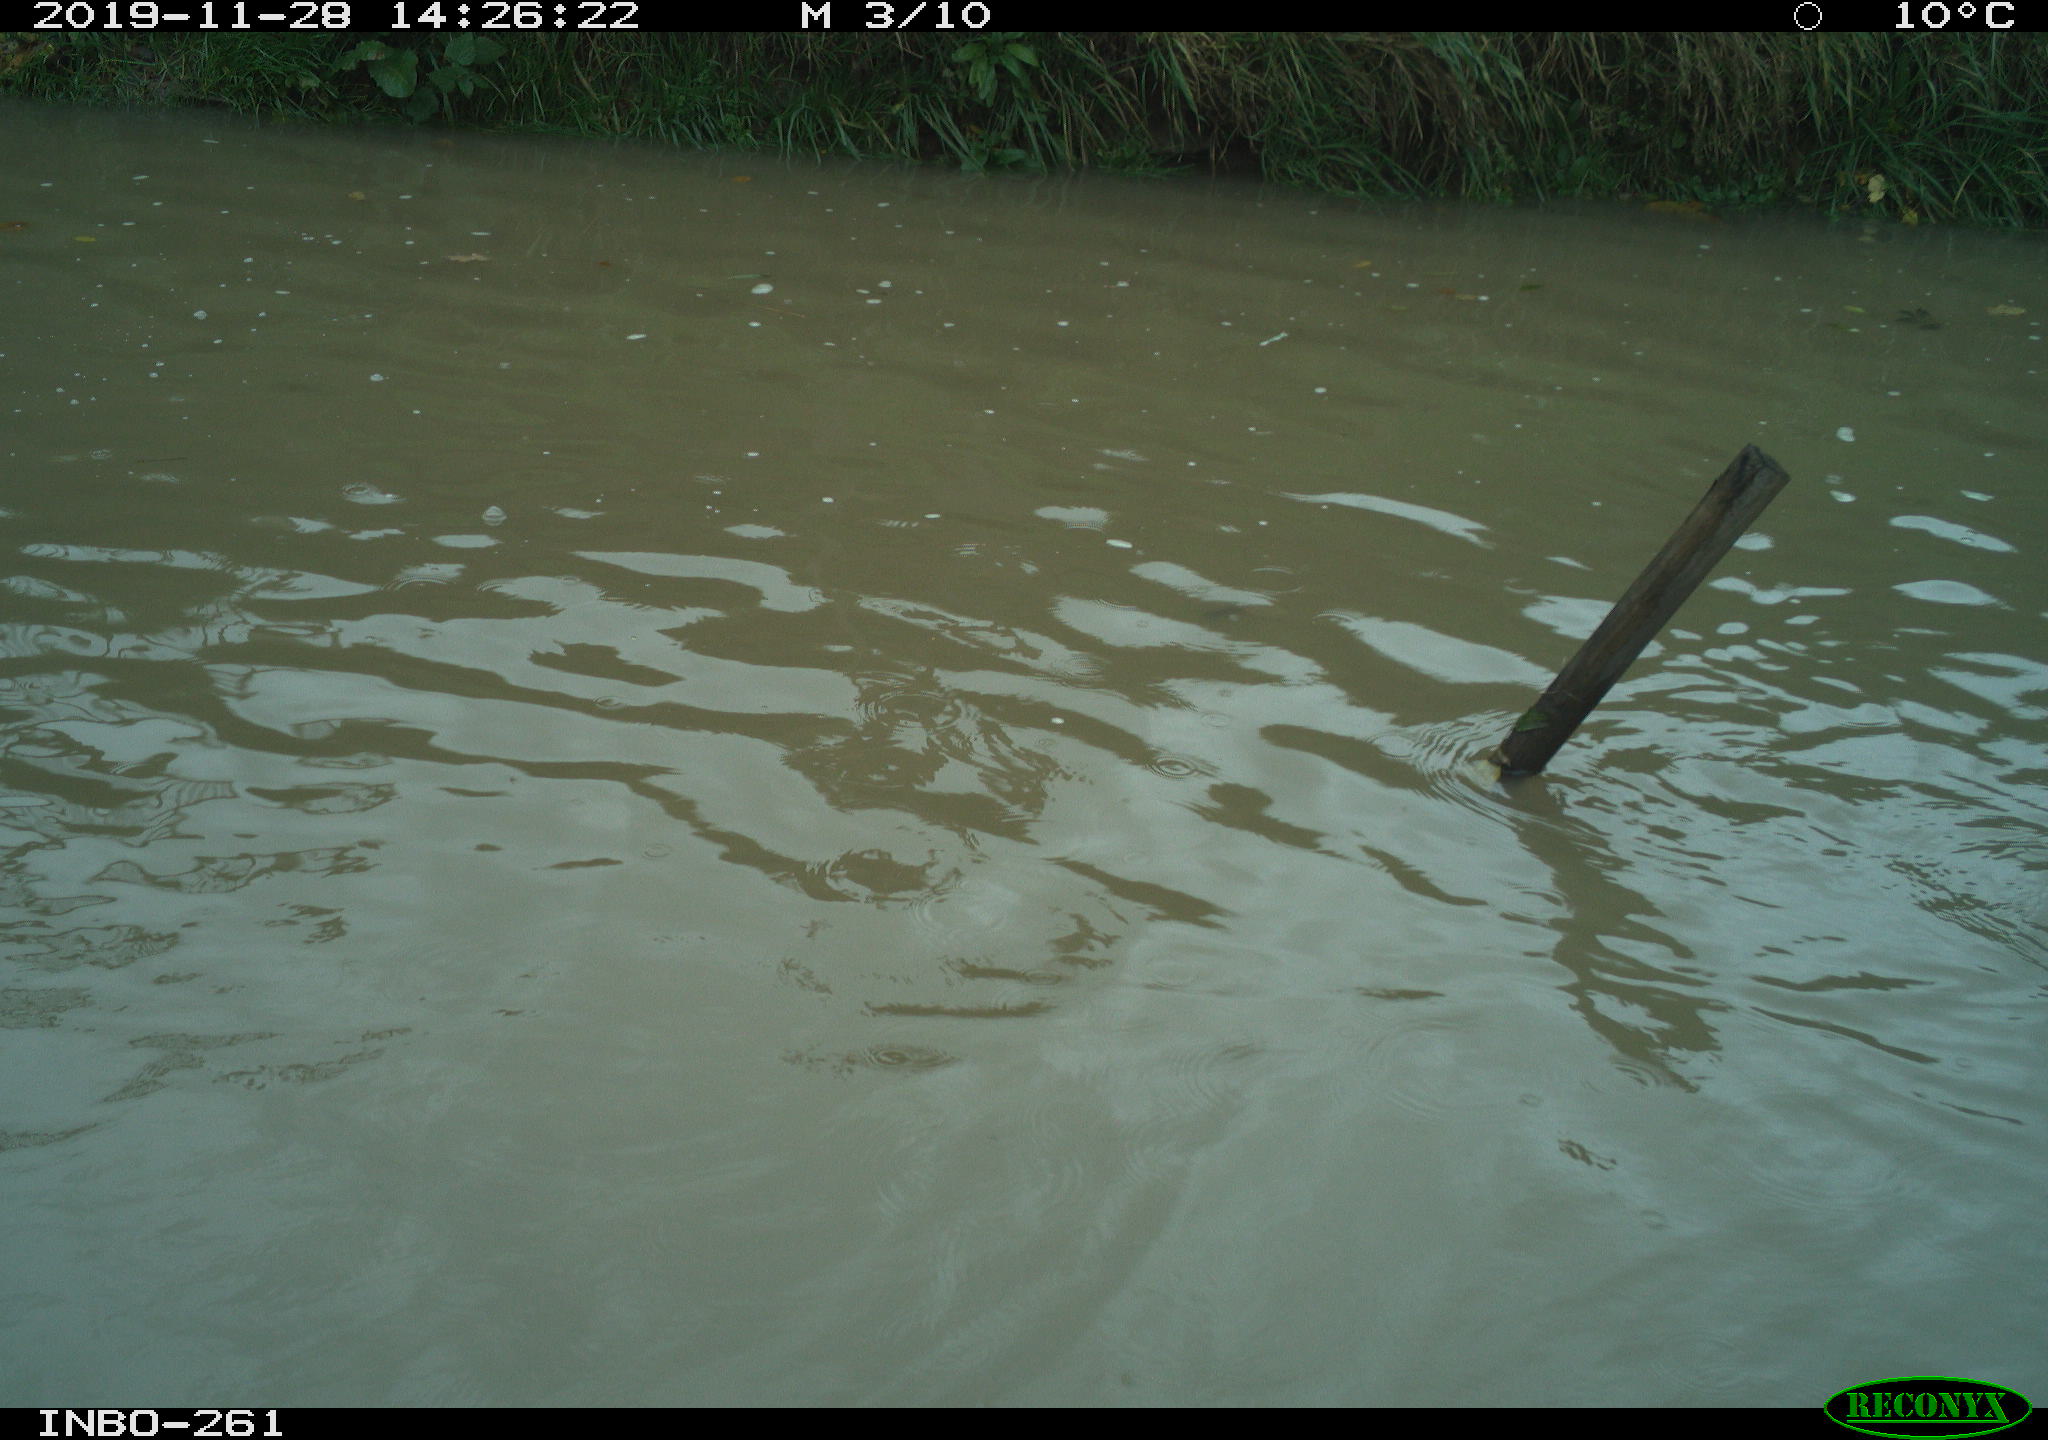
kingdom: Animalia
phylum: Chordata
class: Aves
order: Gruiformes
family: Rallidae
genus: Gallinula
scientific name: Gallinula chloropus
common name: Common moorhen
